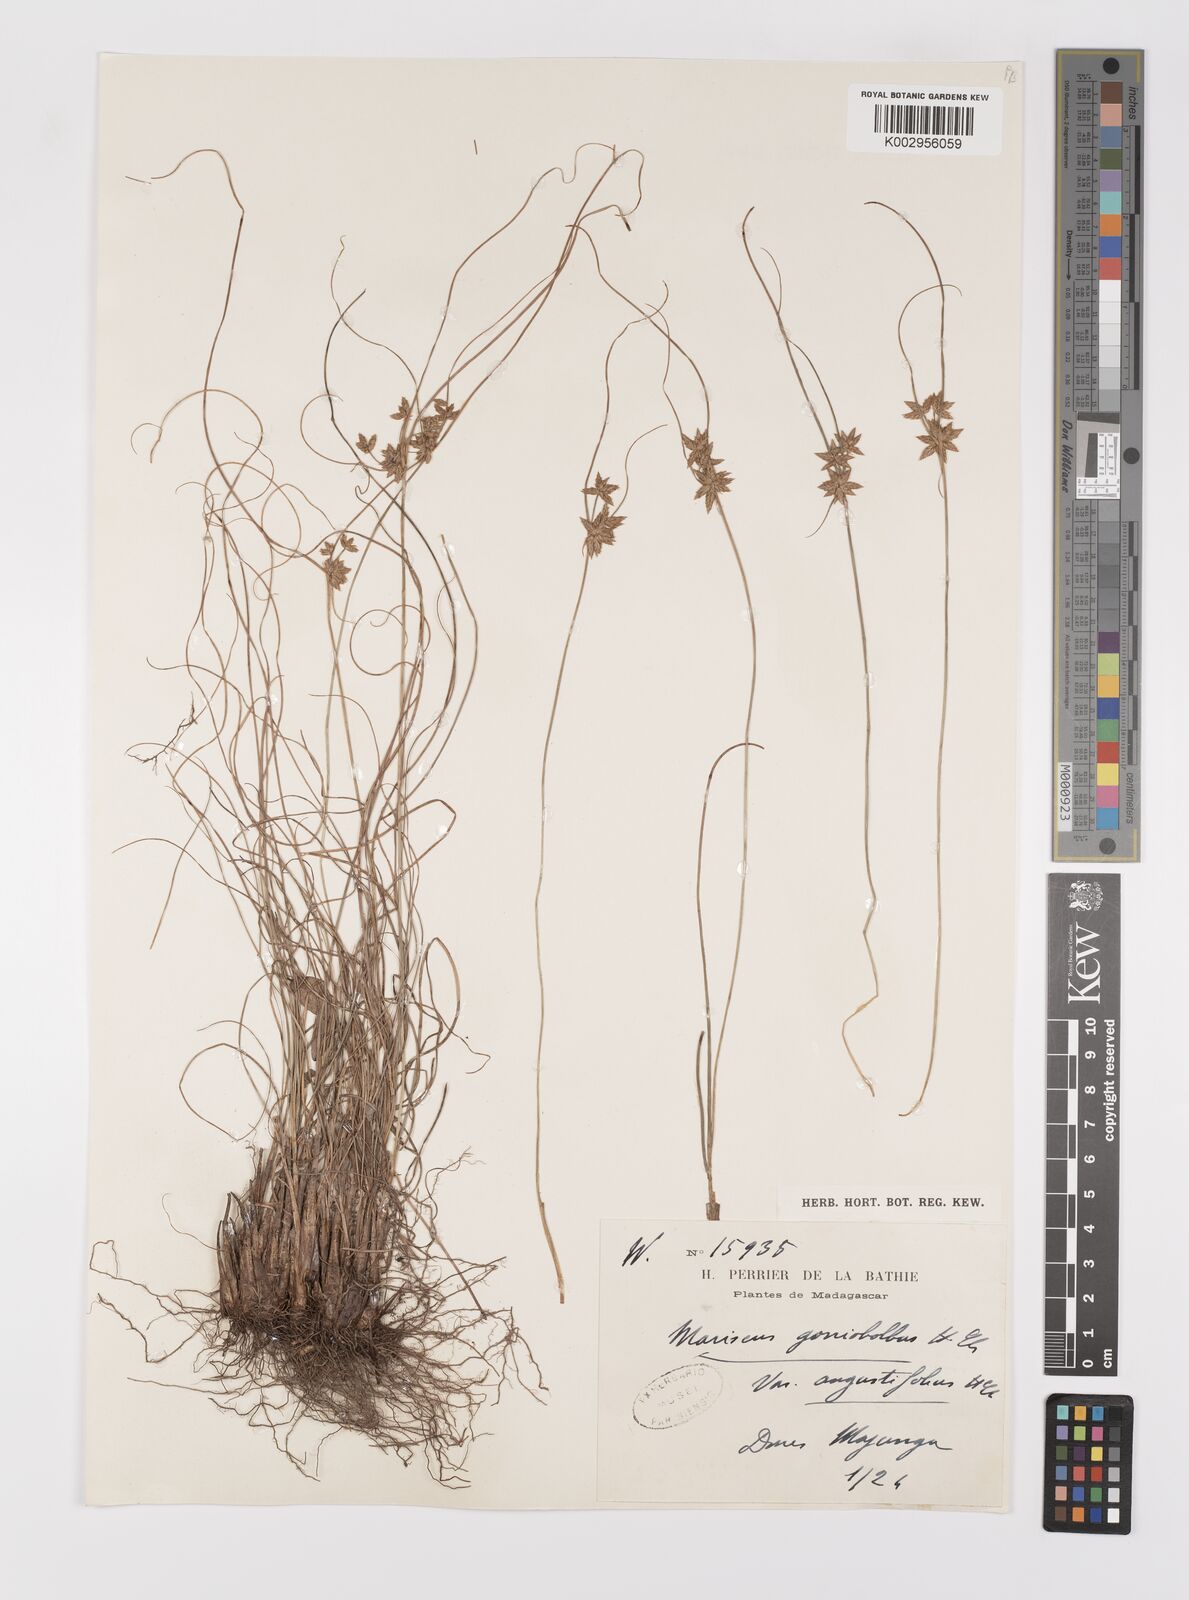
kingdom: Plantae
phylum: Tracheophyta
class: Liliopsida
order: Poales
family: Cyperaceae
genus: Cyperus
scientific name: Cyperus pseudovestitus
